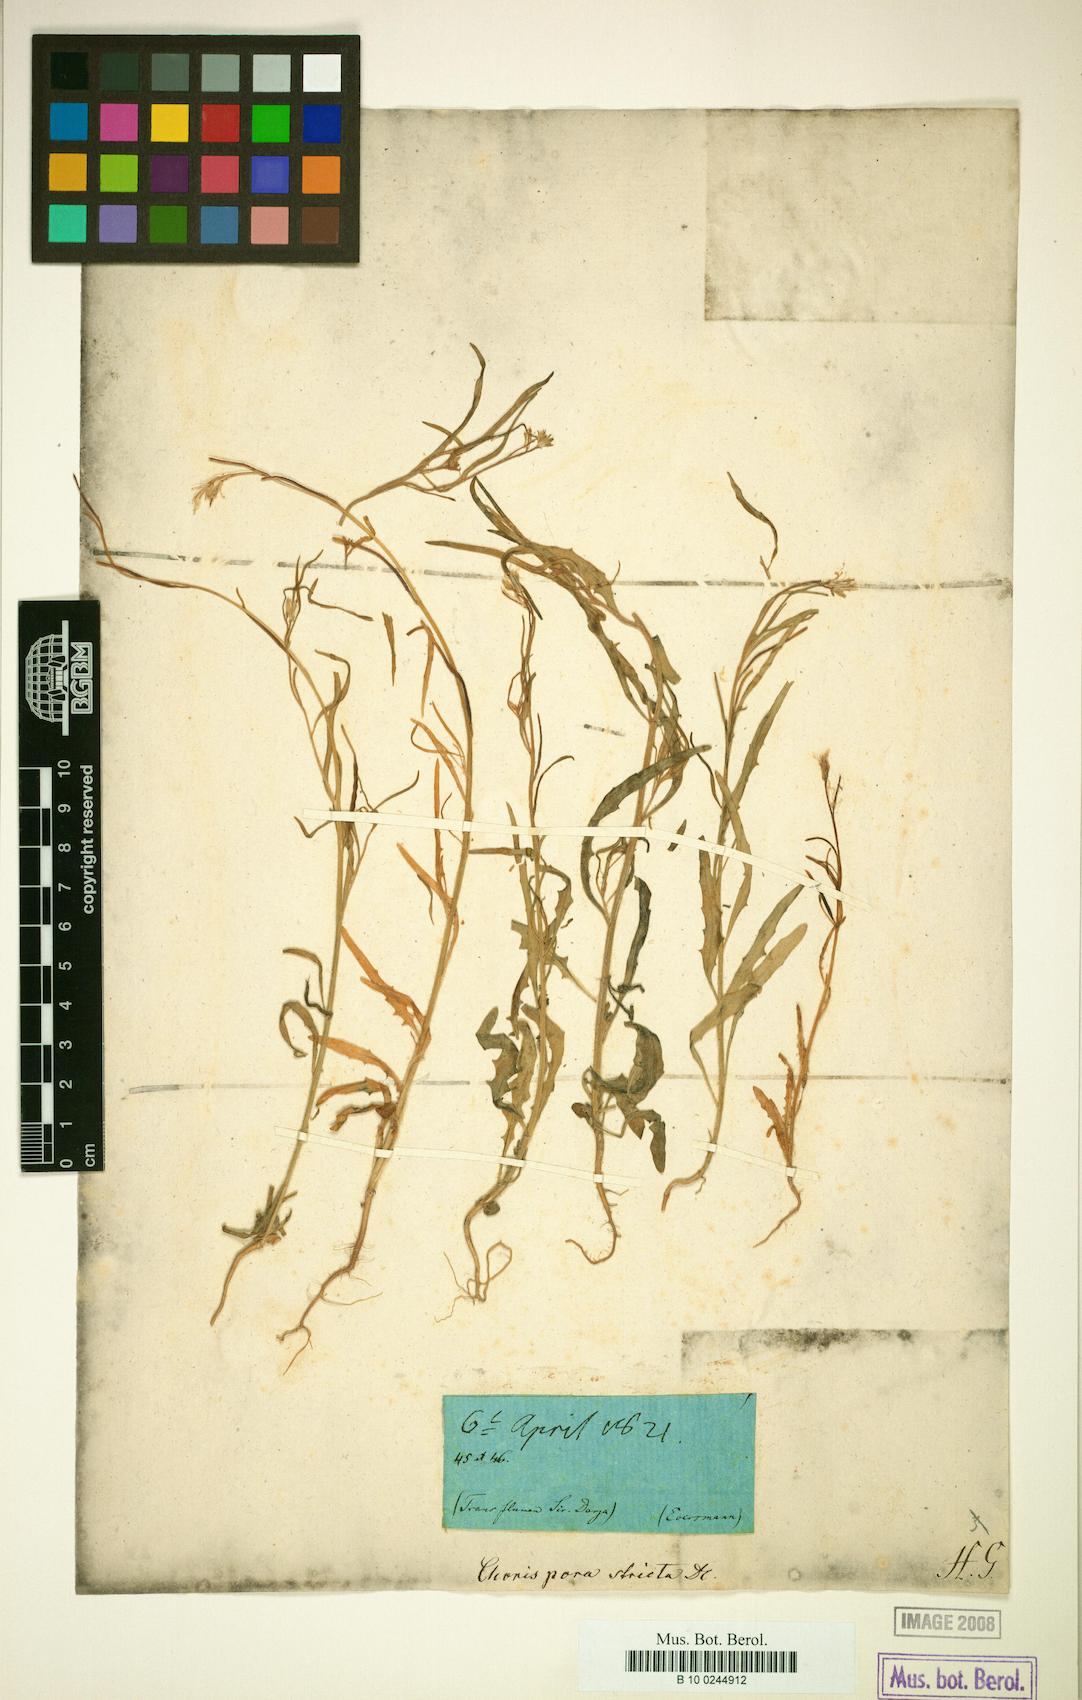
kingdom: Plantae
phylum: Tracheophyta
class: Magnoliopsida
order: Brassicales
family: Brassicaceae
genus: Diptychocarpus
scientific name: Diptychocarpus strictus
